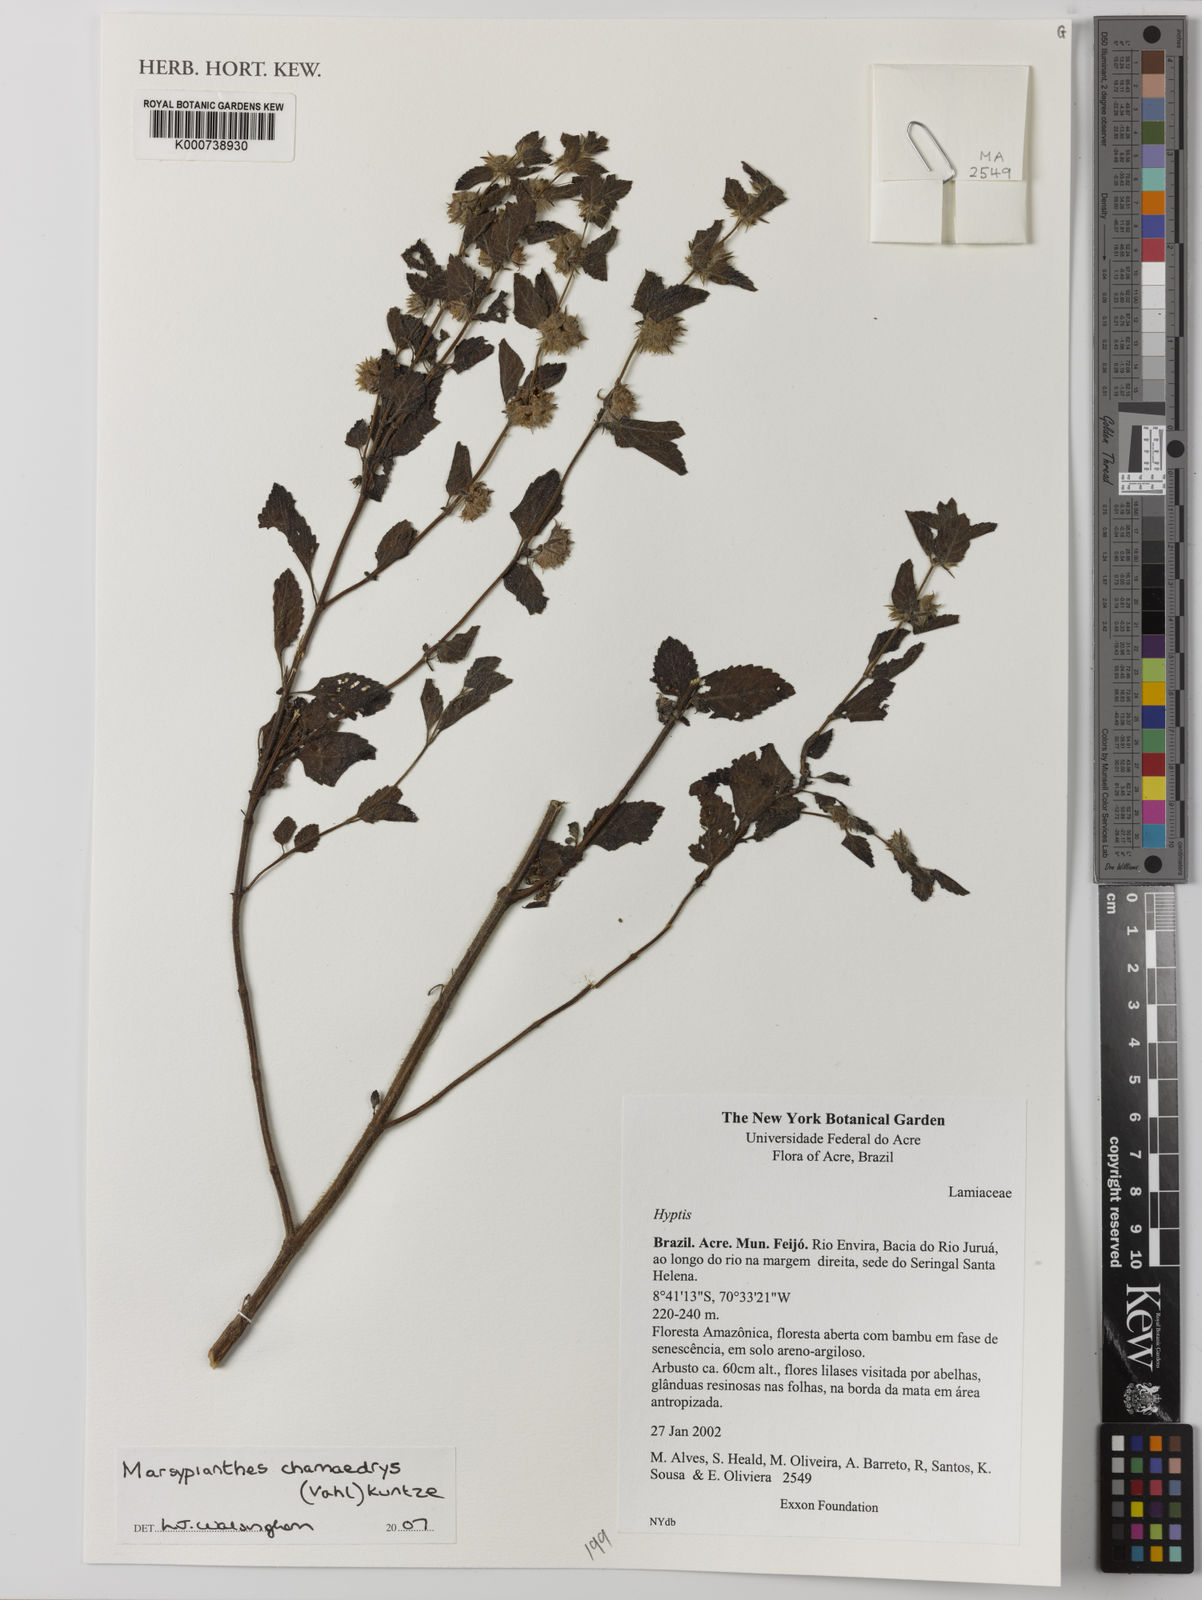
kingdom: Plantae
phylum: Tracheophyta
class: Magnoliopsida
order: Lamiales
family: Lamiaceae
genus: Marsypianthes
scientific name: Marsypianthes chamaedrys
